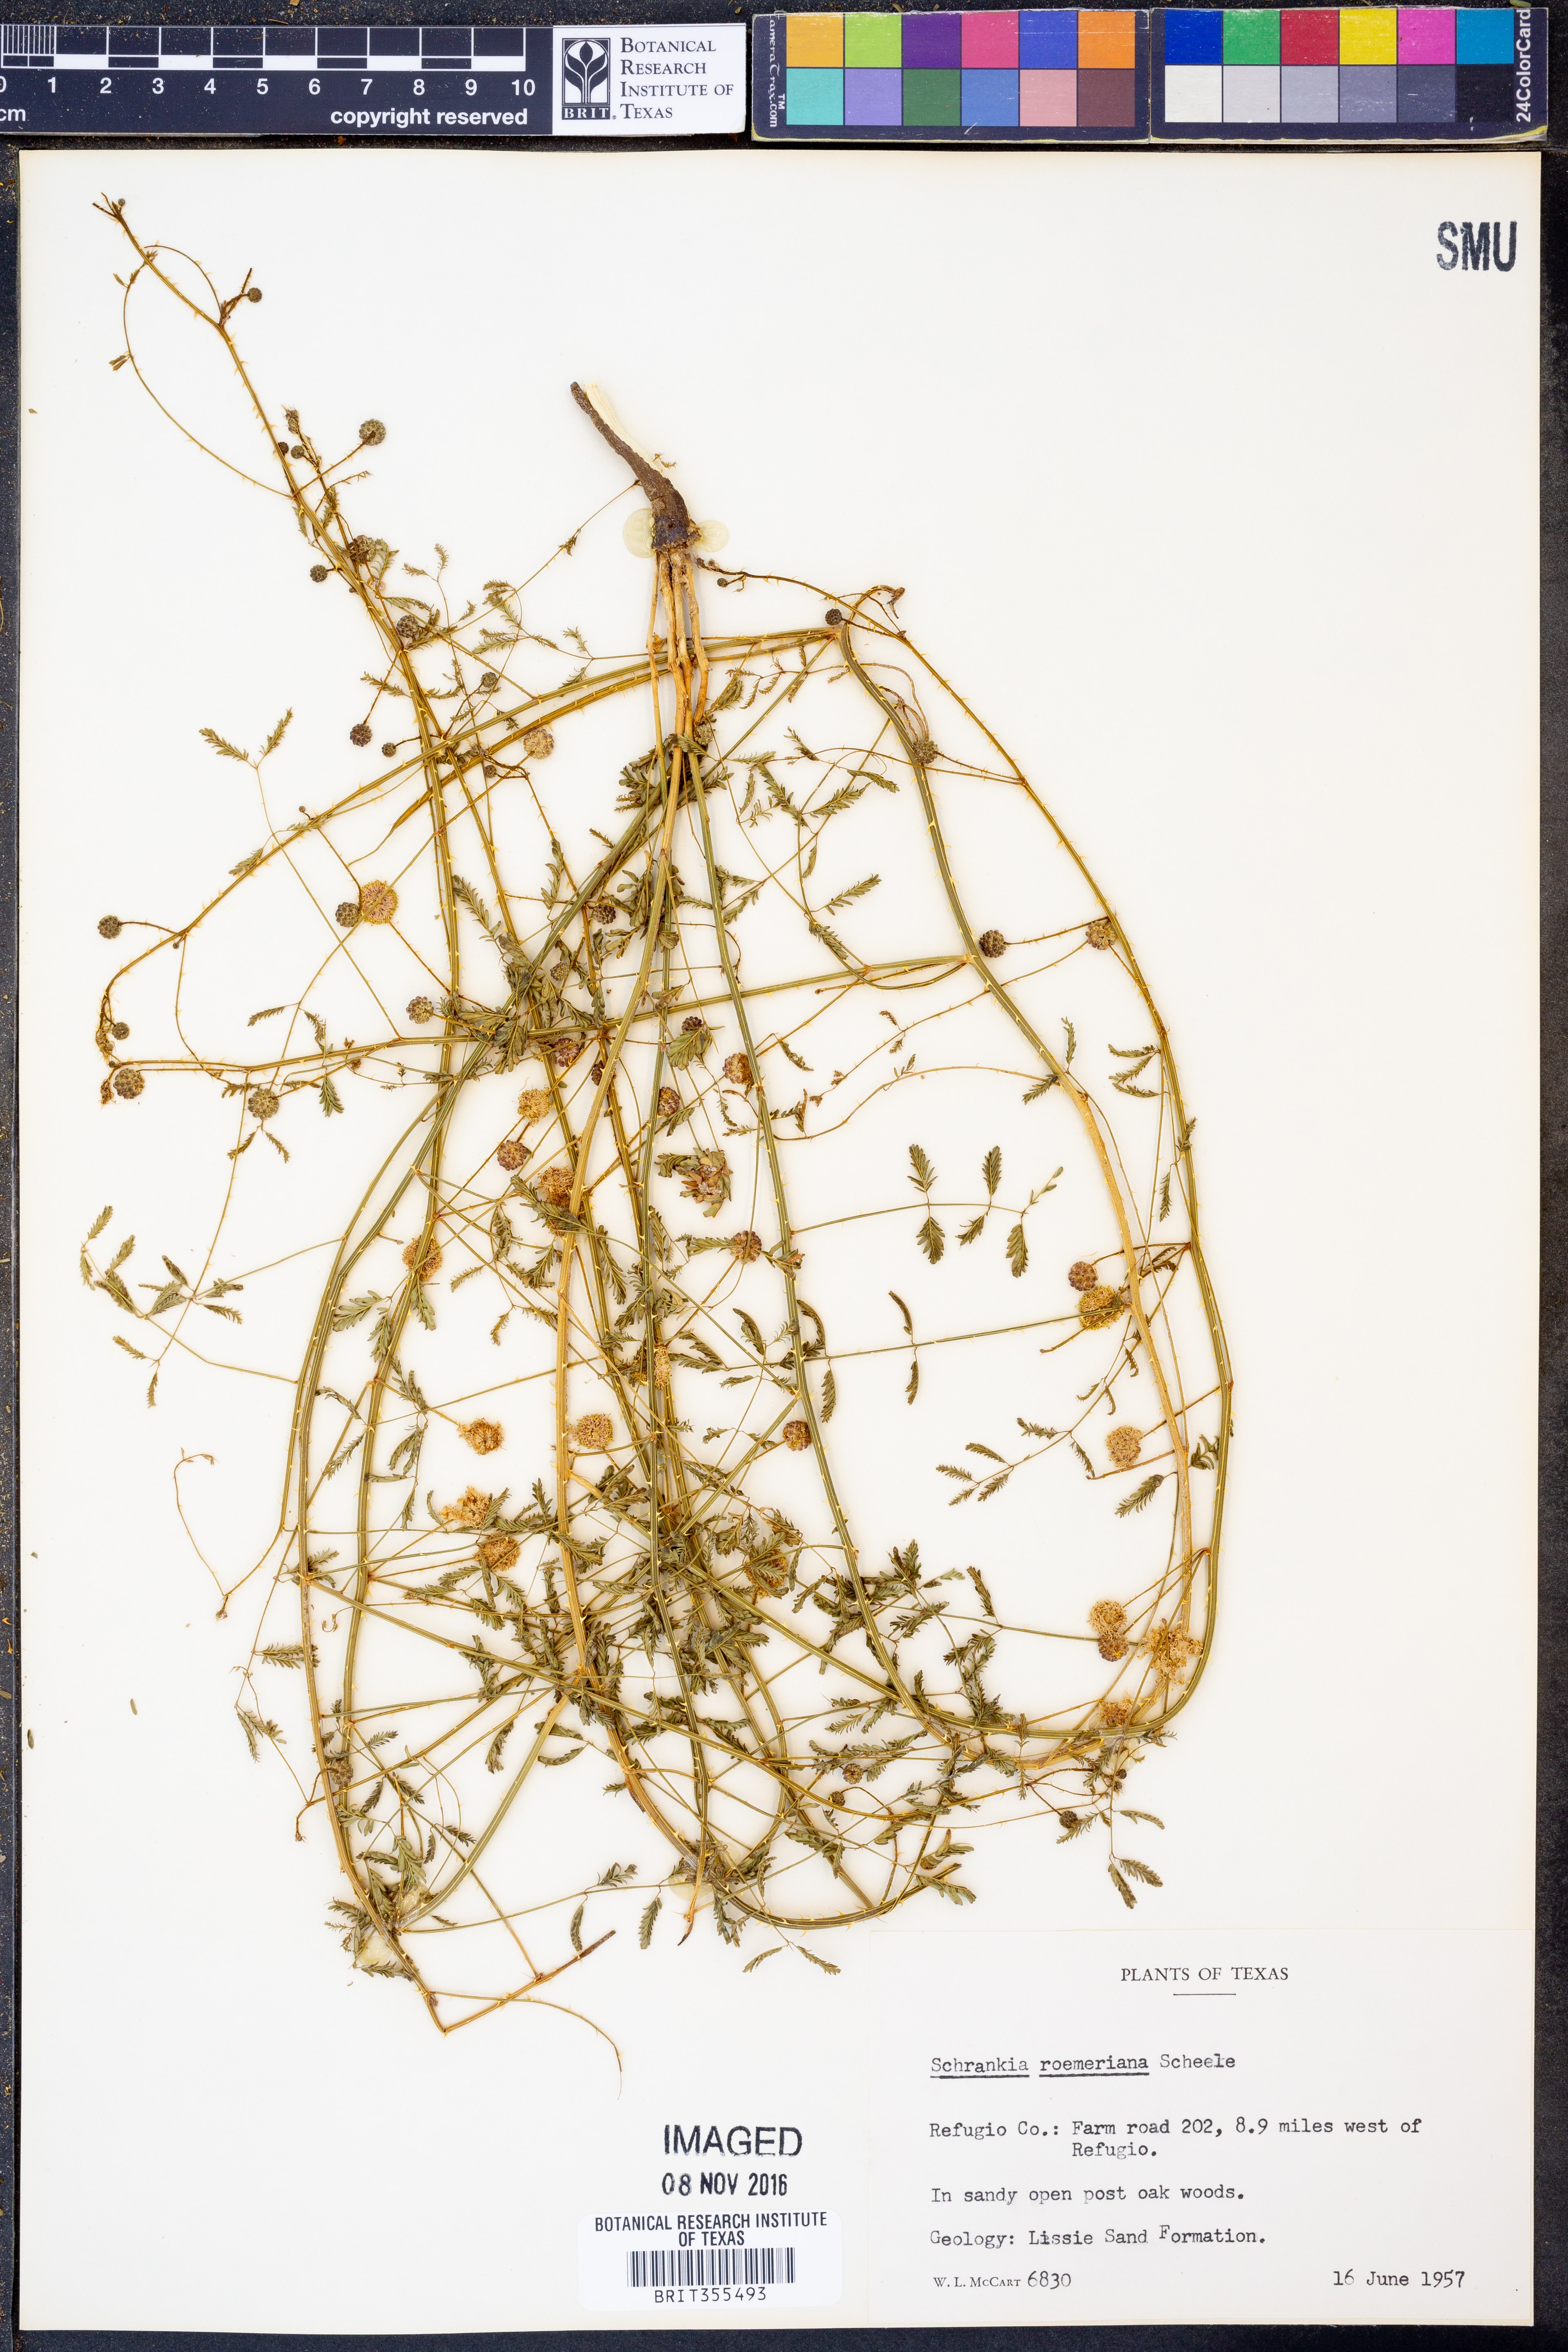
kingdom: Plantae
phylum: Tracheophyta
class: Magnoliopsida
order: Fabales
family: Fabaceae
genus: Mimosa
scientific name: Mimosa quadrivalvis
